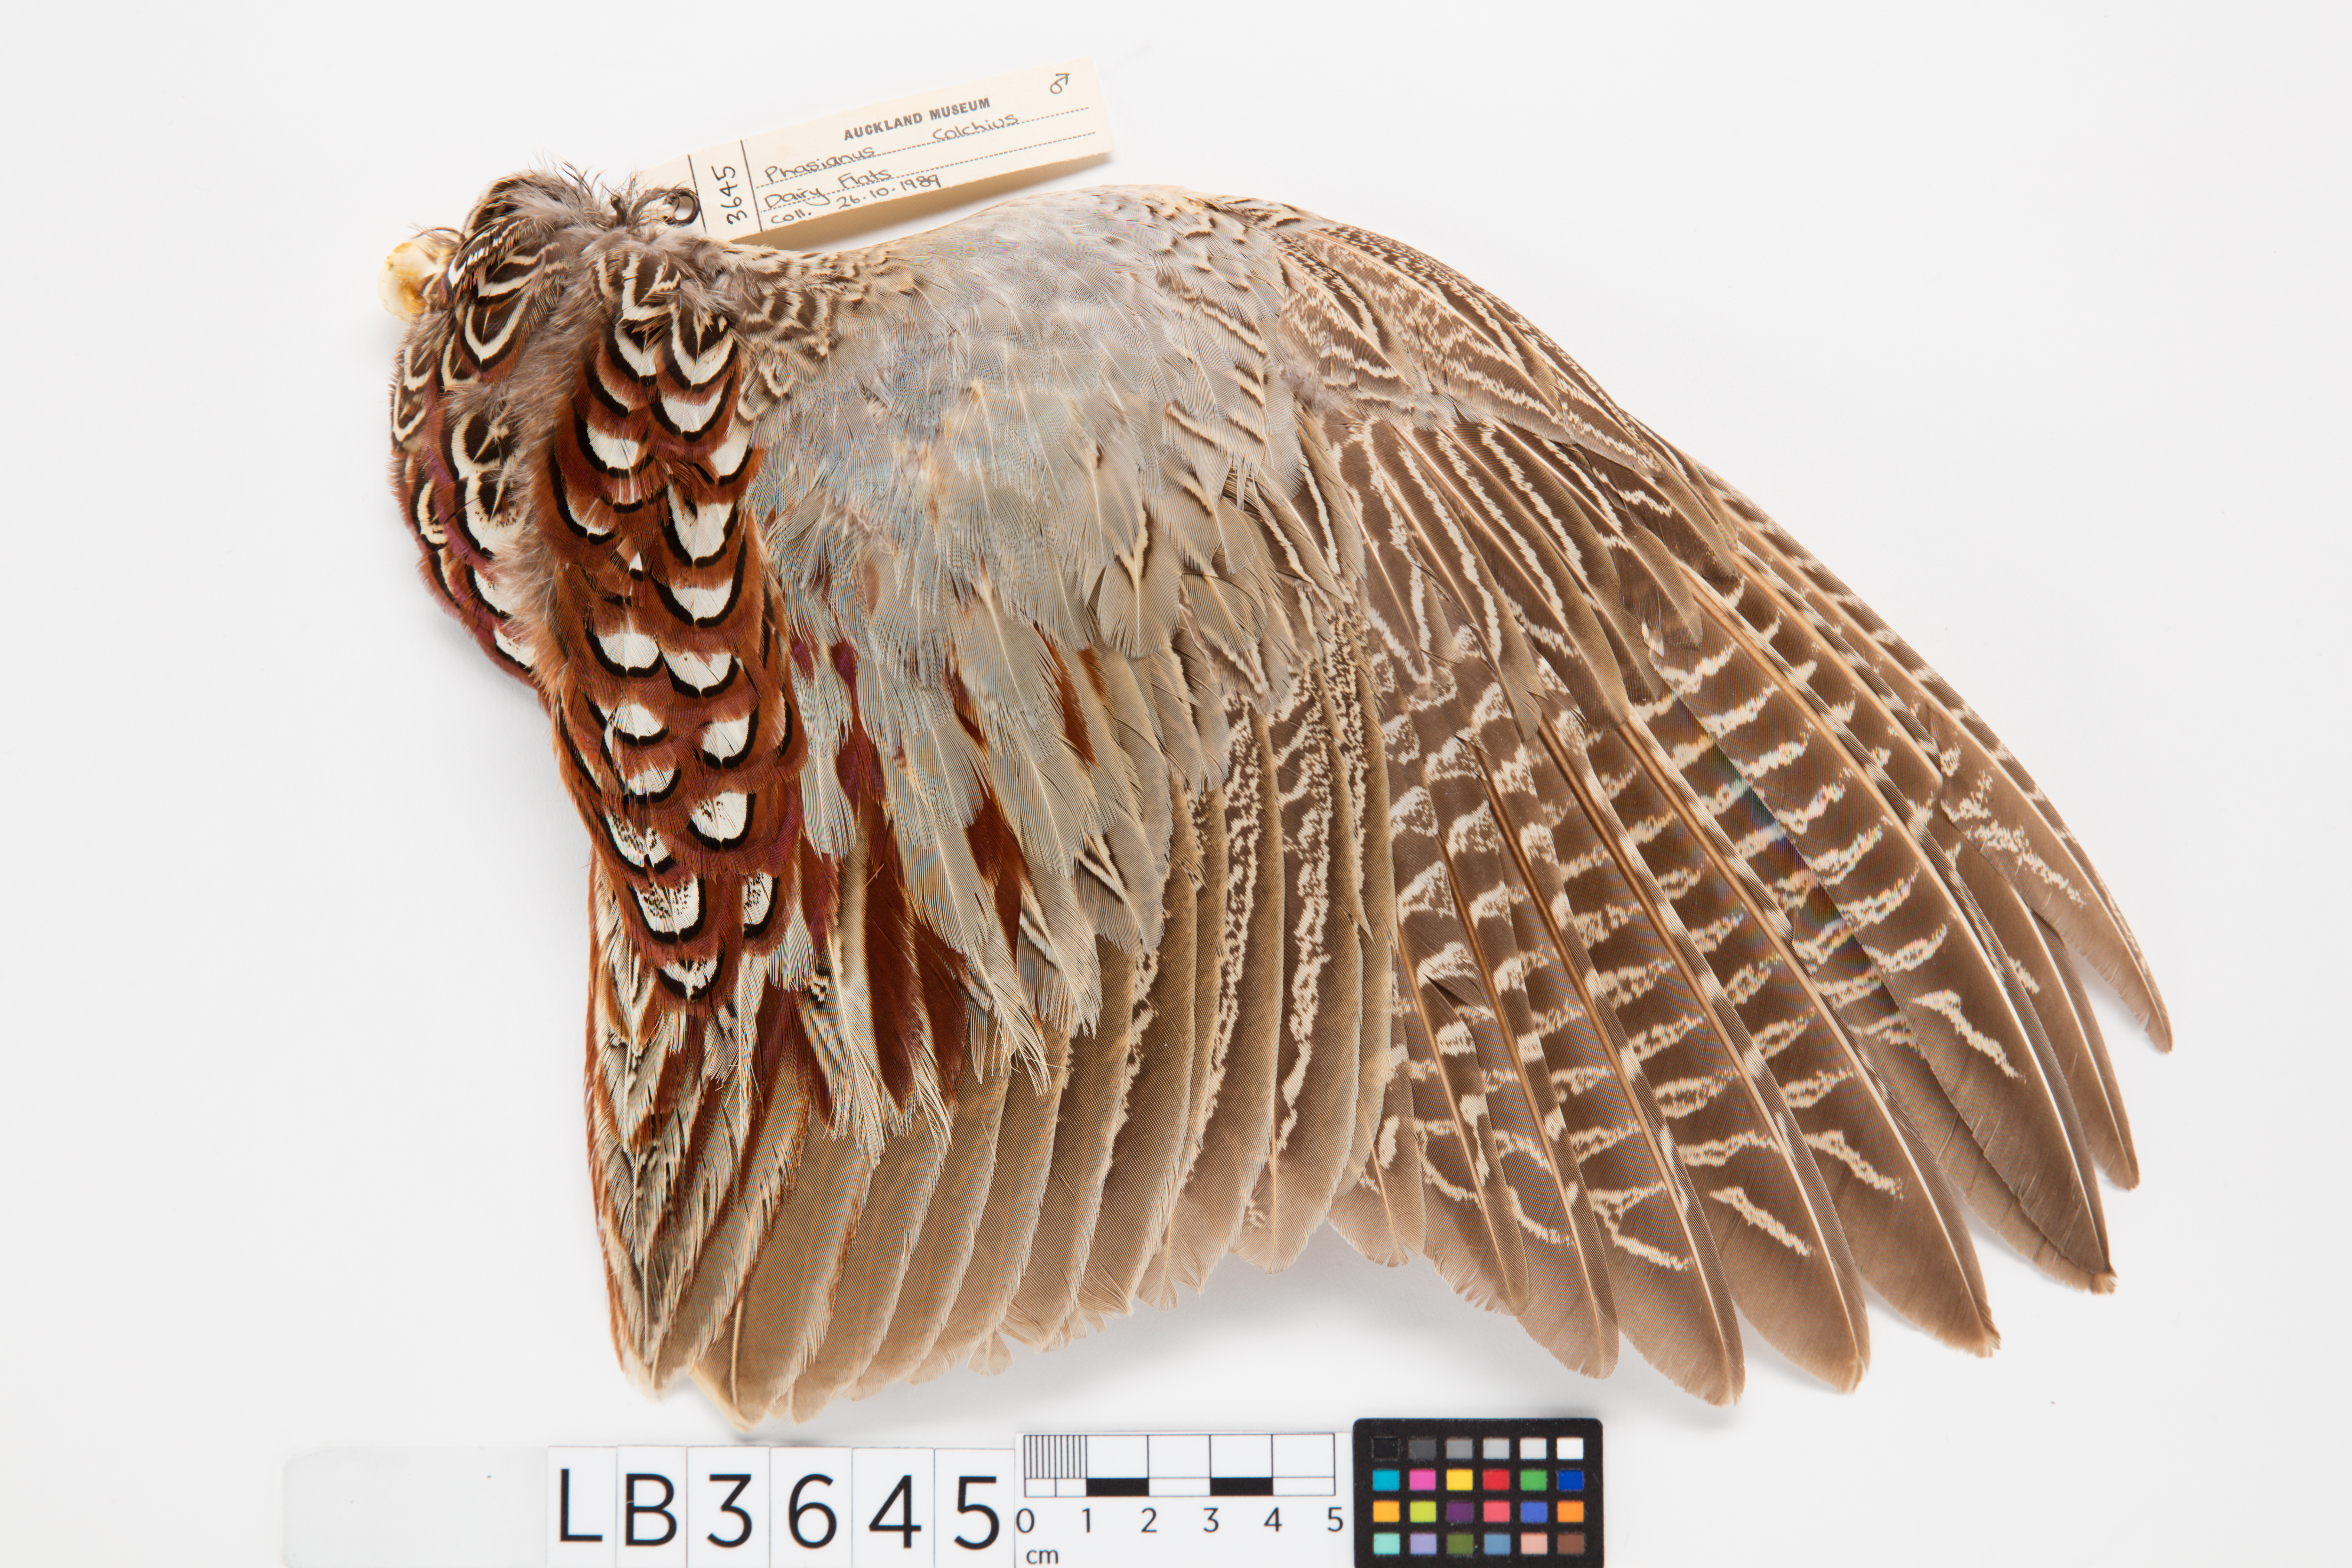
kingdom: Animalia
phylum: Chordata
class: Aves
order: Galliformes
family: Phasianidae
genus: Phasianus
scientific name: Phasianus colchicus
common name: Common pheasant
